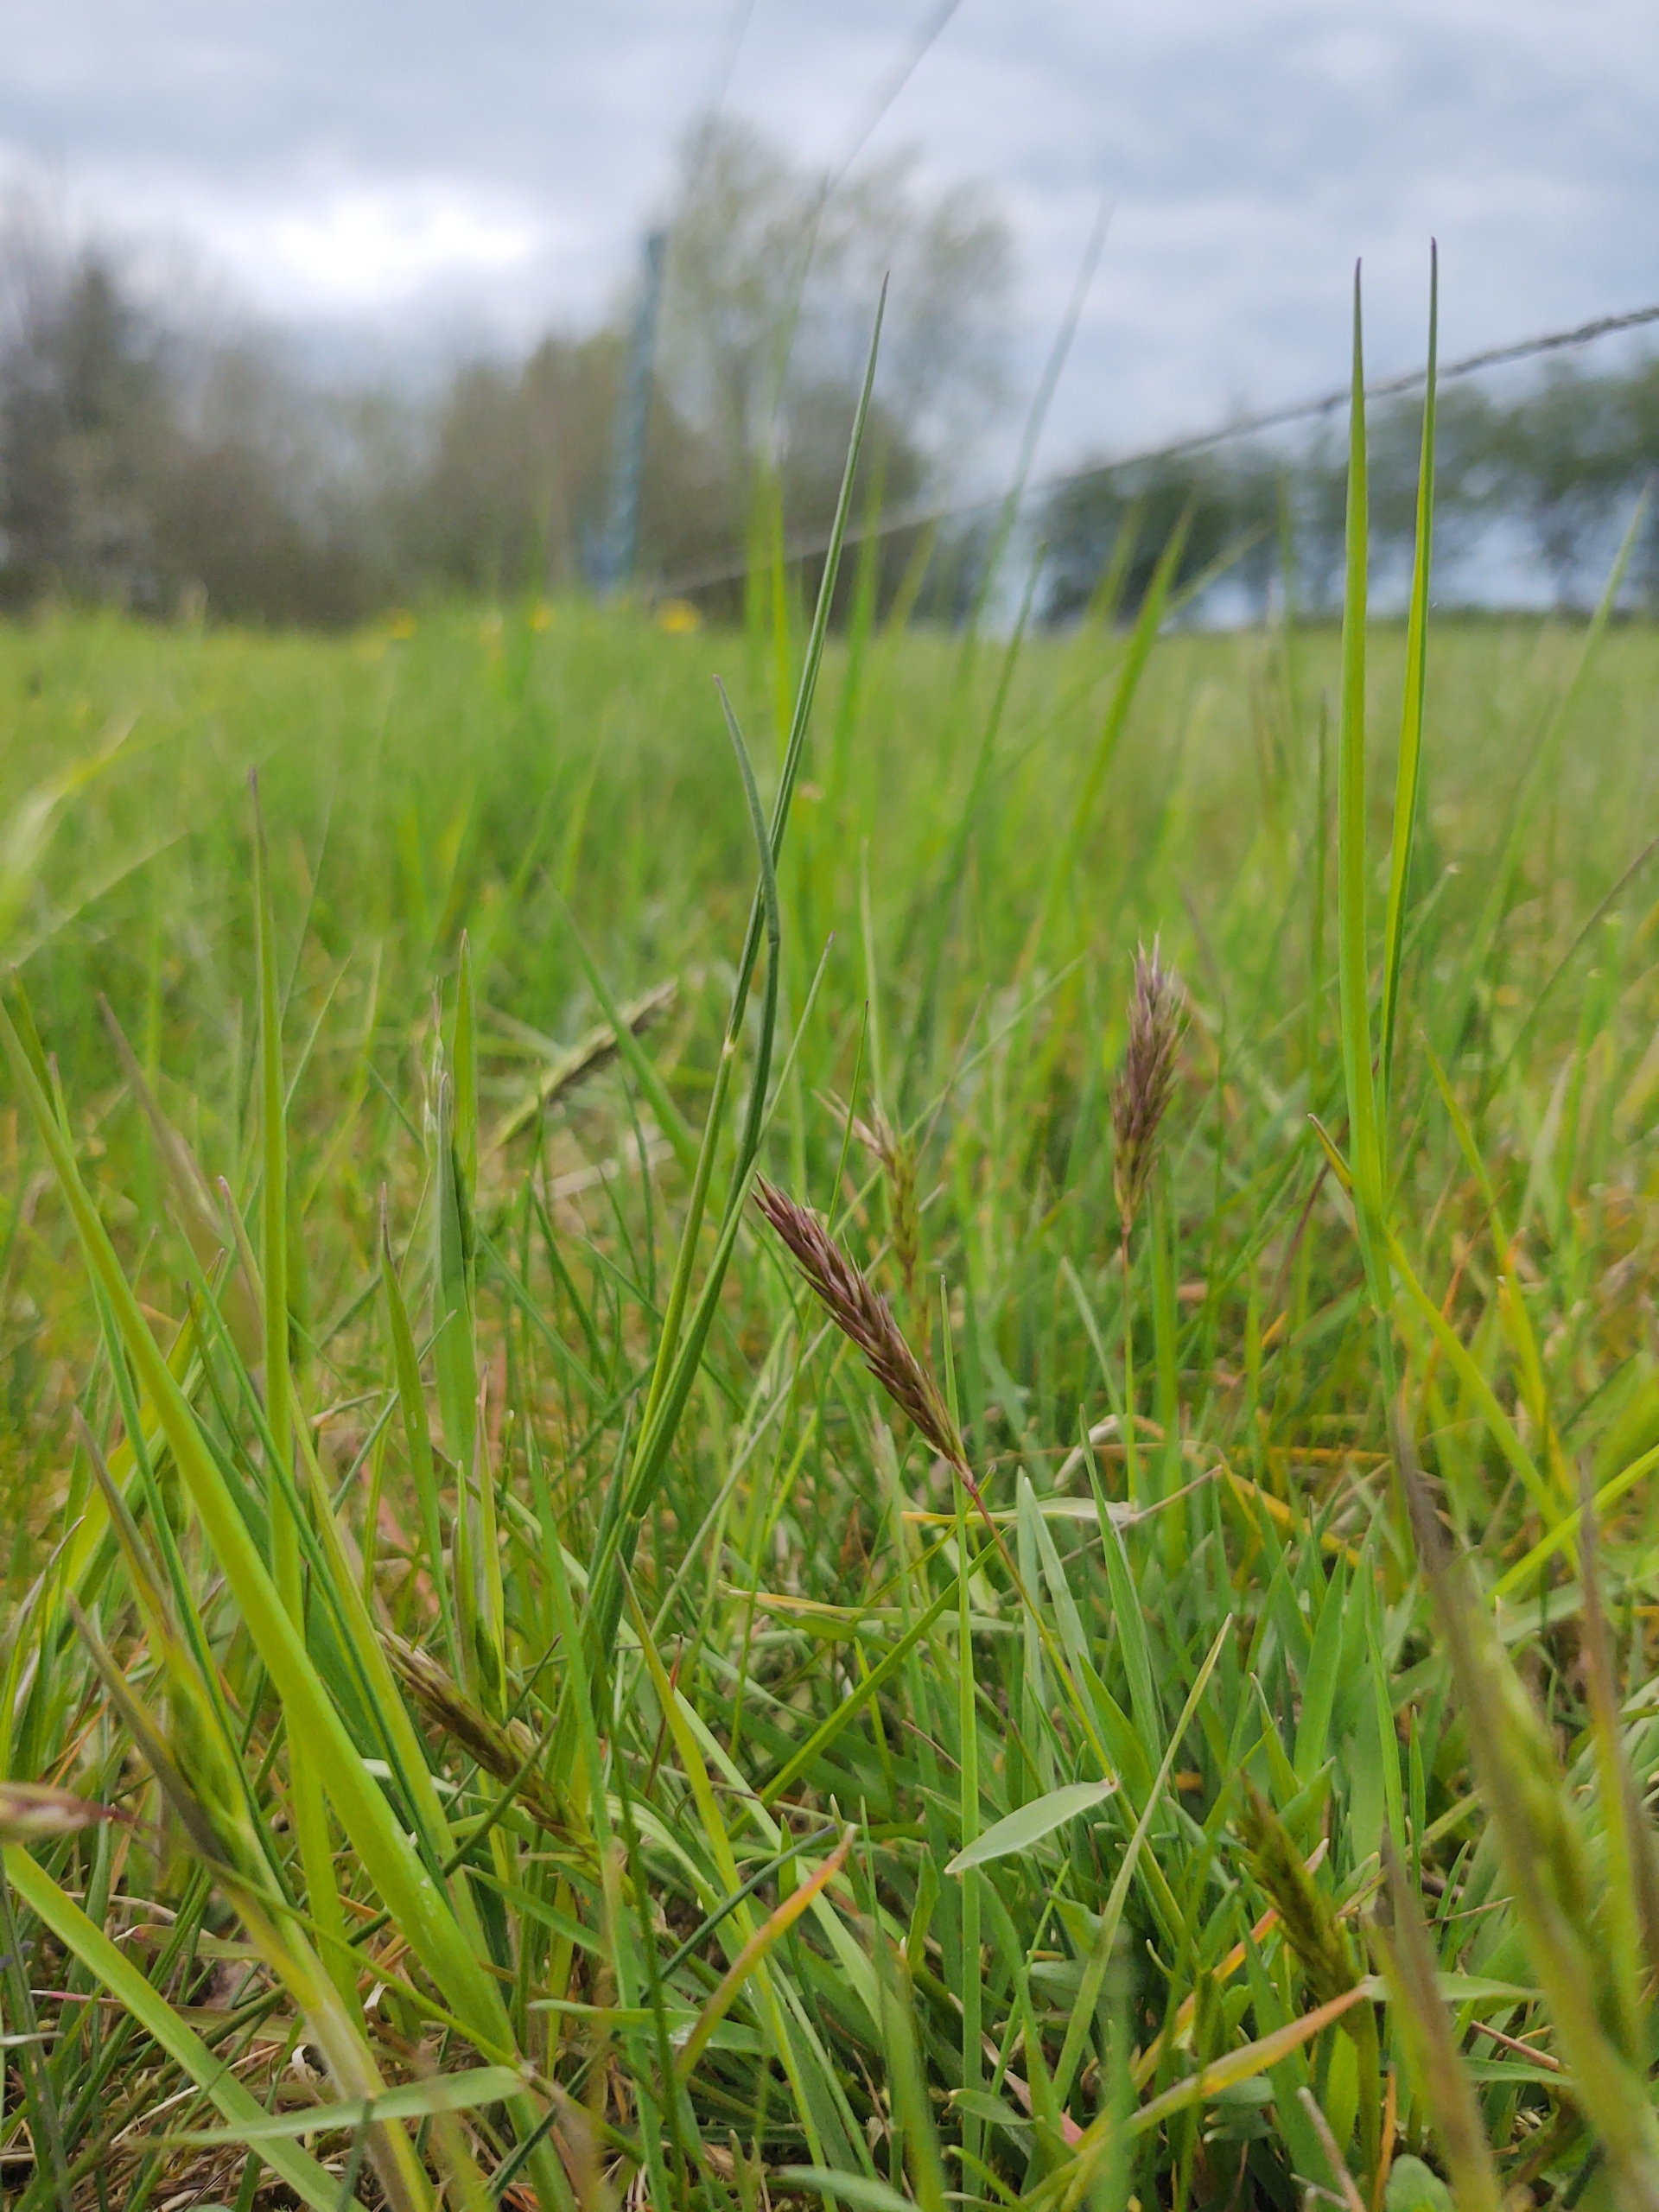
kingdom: Plantae
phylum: Tracheophyta
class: Liliopsida
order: Poales
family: Poaceae
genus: Anthoxanthum
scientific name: Anthoxanthum odoratum
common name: Vellugtende gulaks
